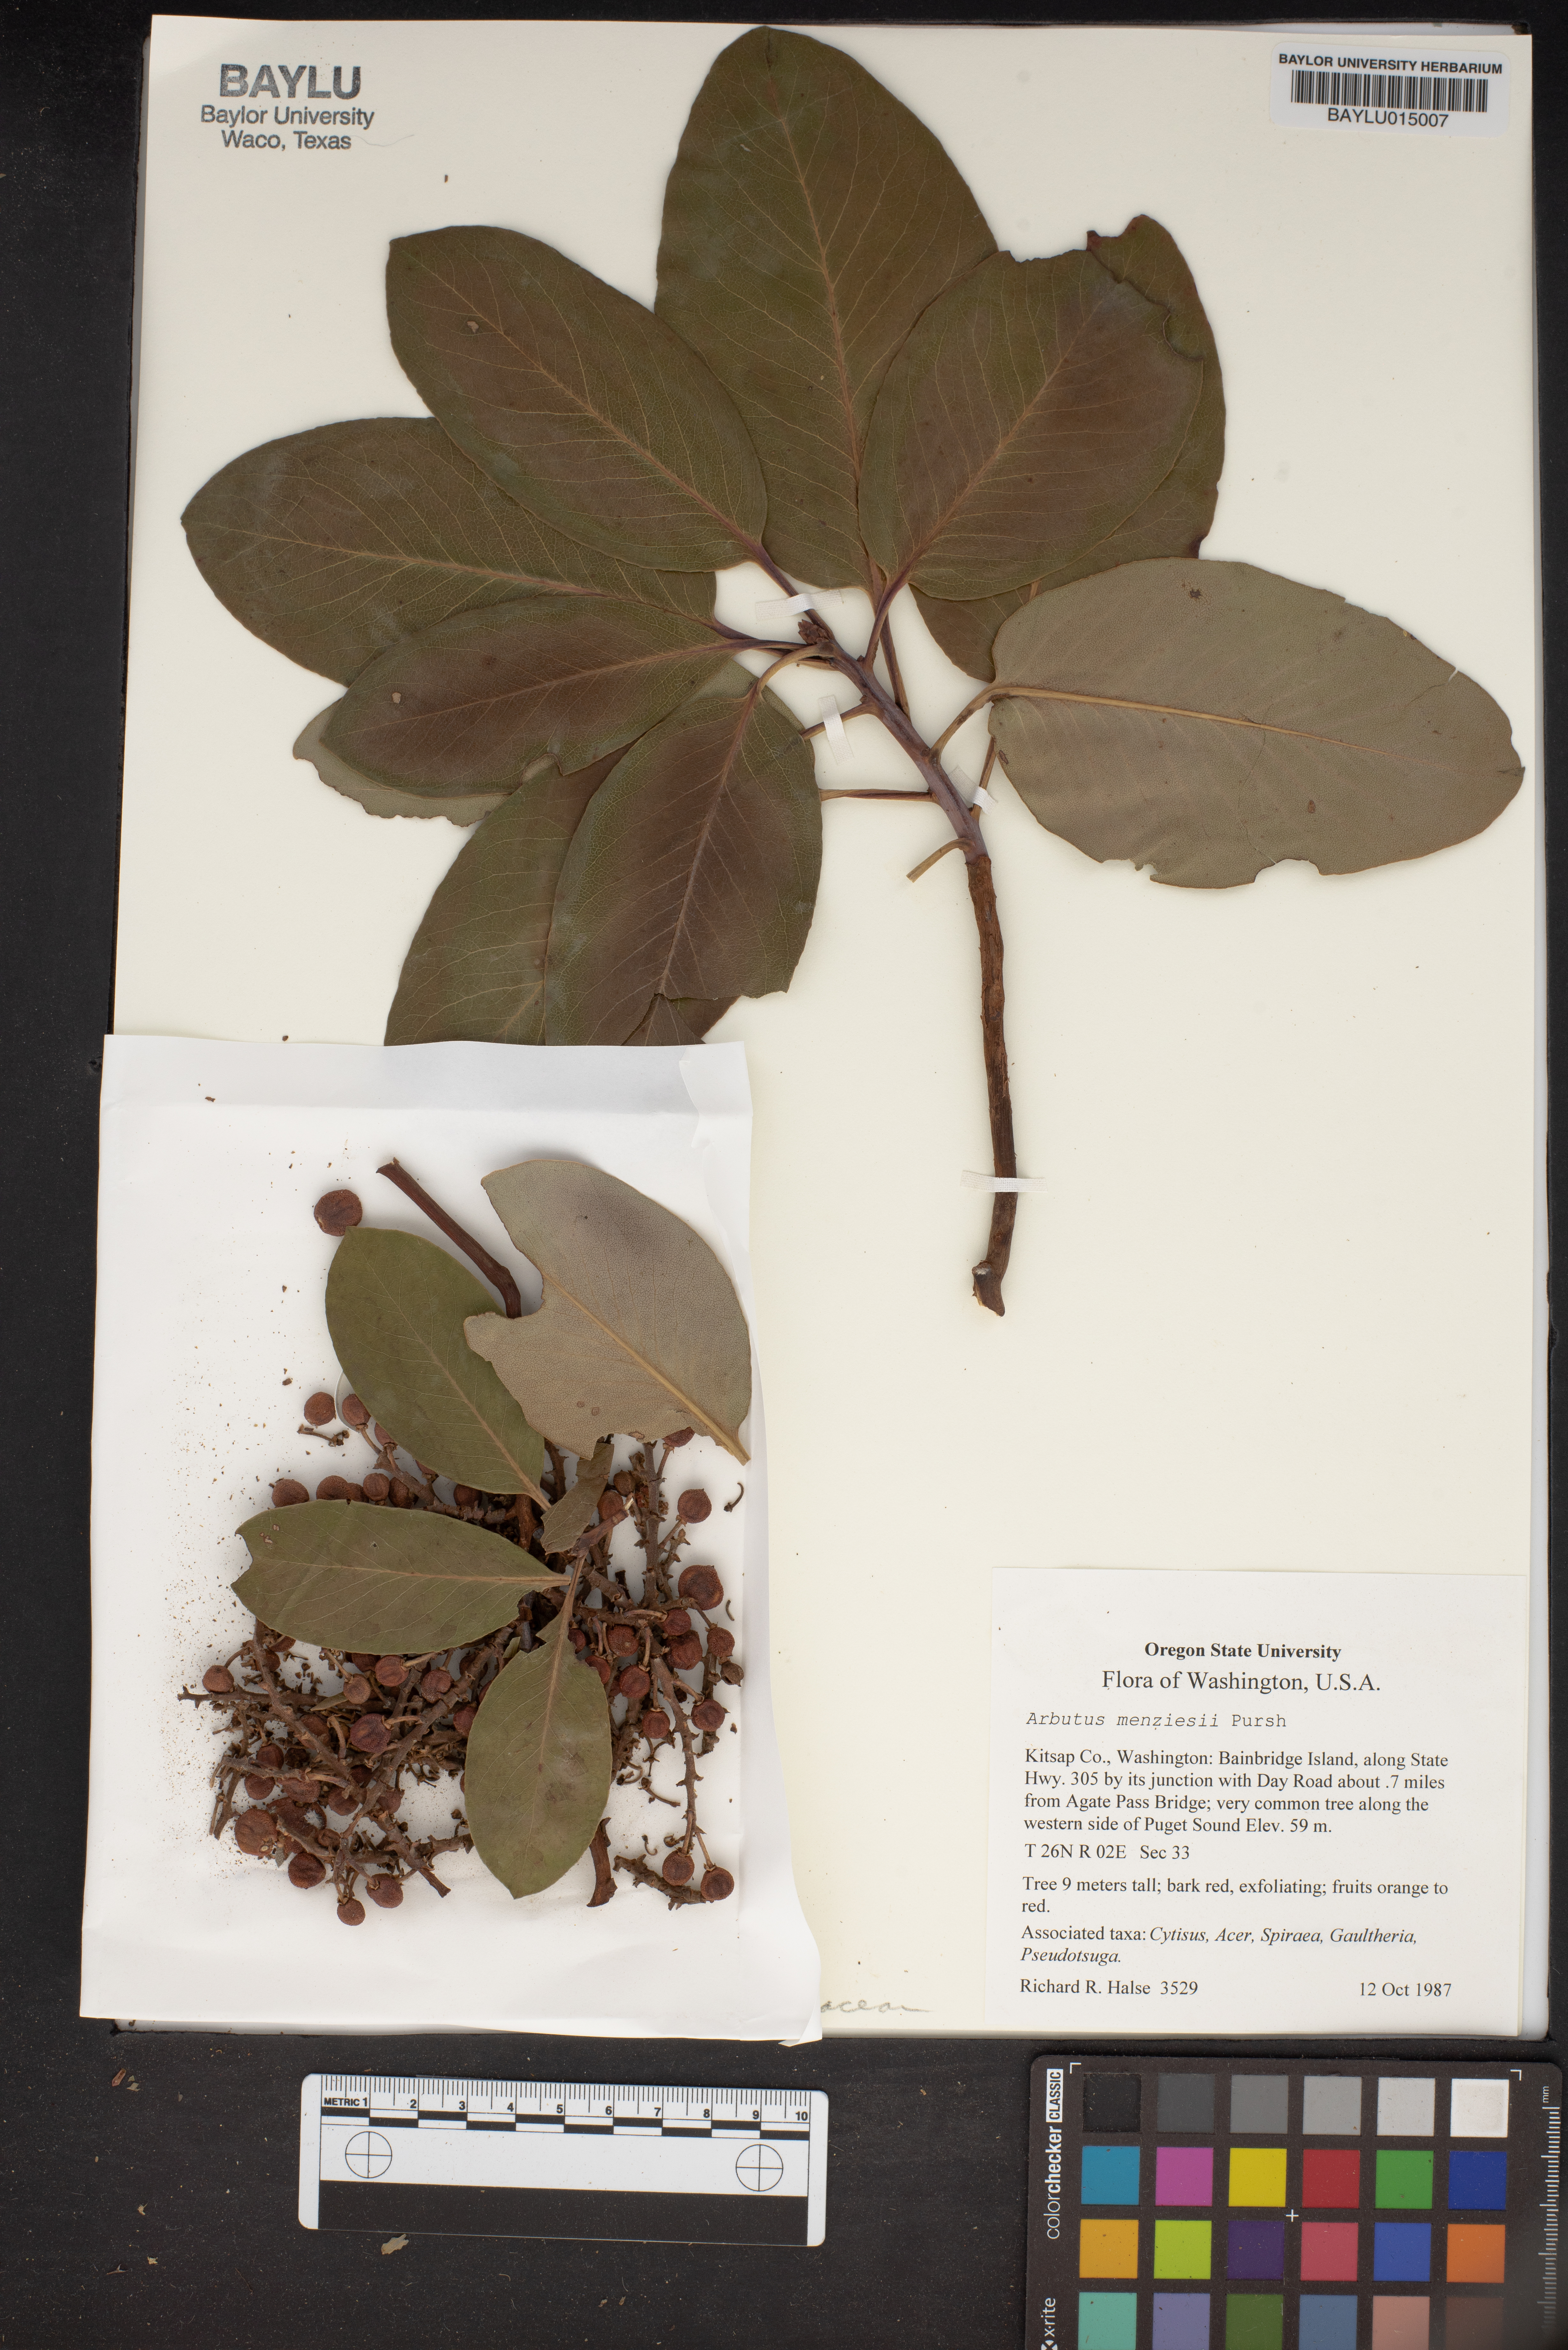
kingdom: Plantae
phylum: Tracheophyta
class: Magnoliopsida
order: Ericales
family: Ericaceae
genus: Arbutus
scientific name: Arbutus menziesii
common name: Pacific madrone
